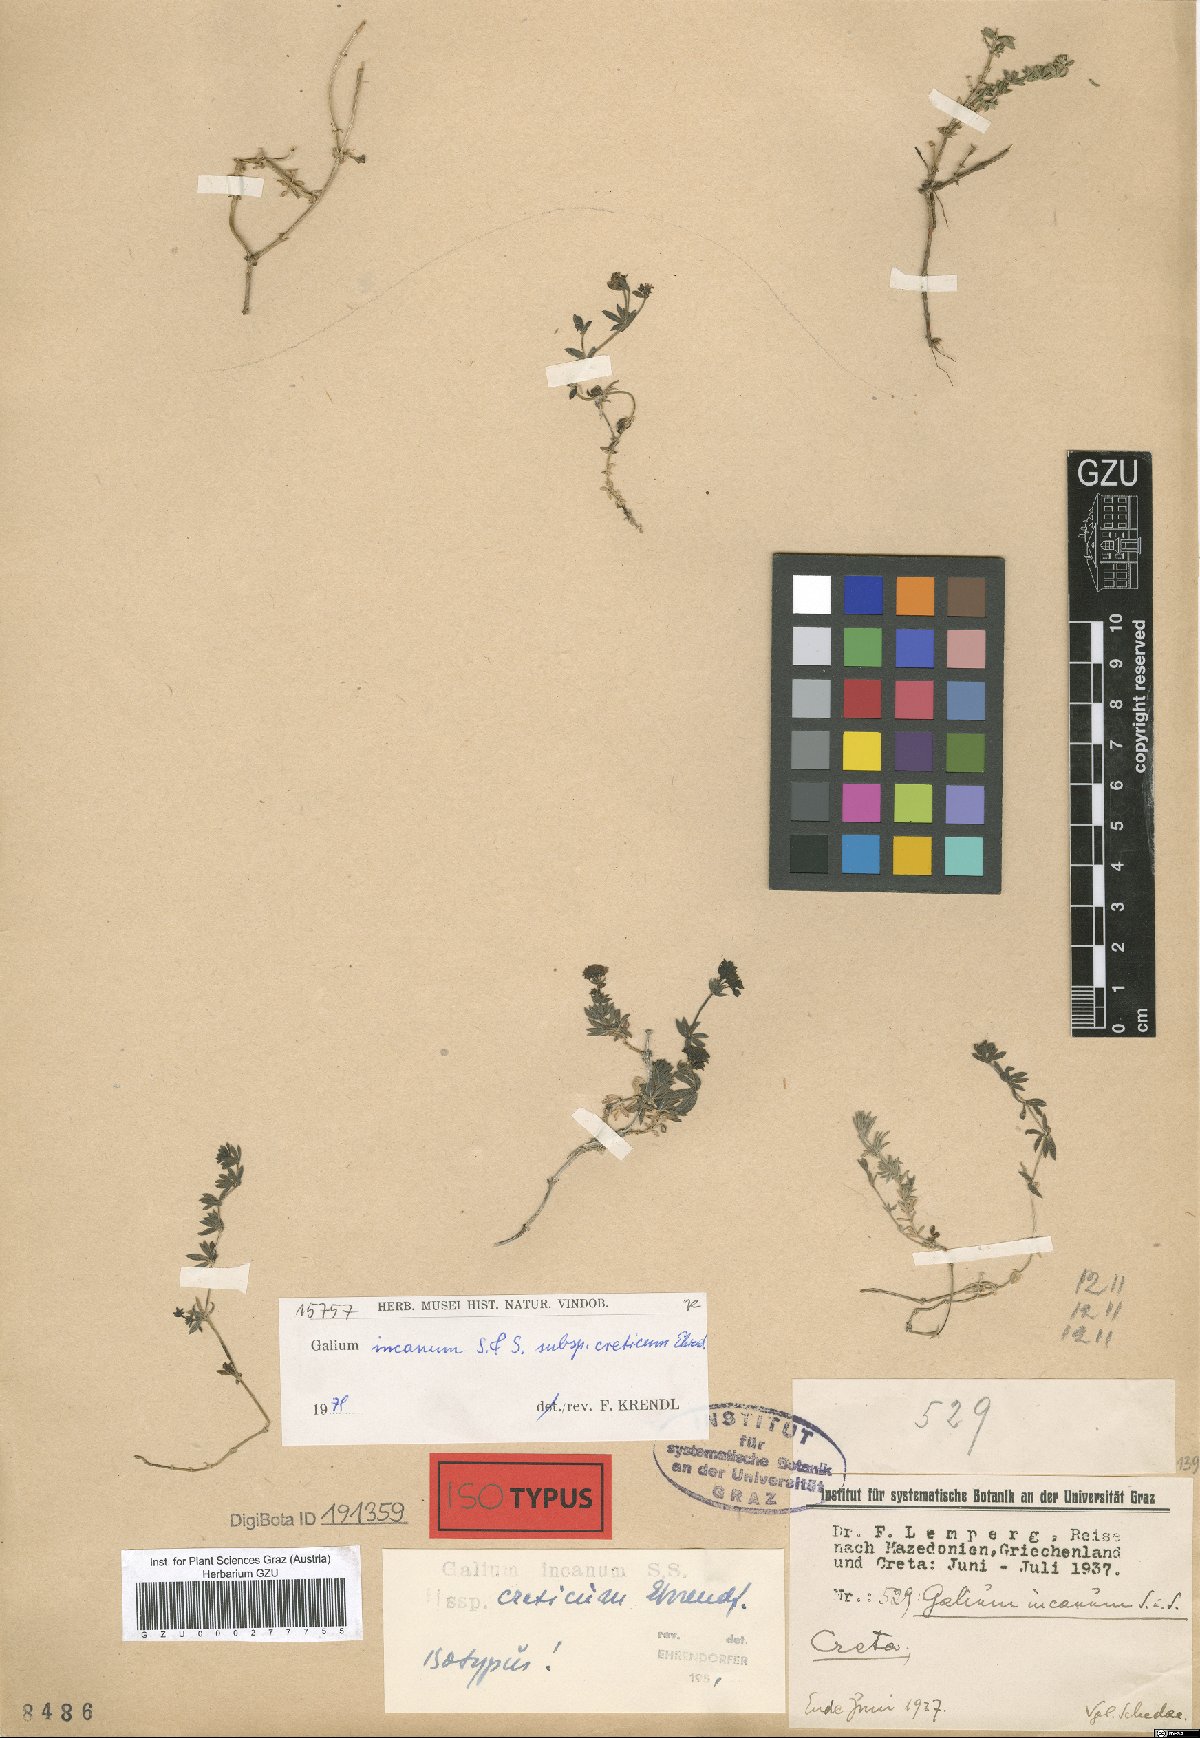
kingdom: Plantae
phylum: Tracheophyta
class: Magnoliopsida
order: Gentianales
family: Rubiaceae
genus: Galium
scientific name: Galium incanum
